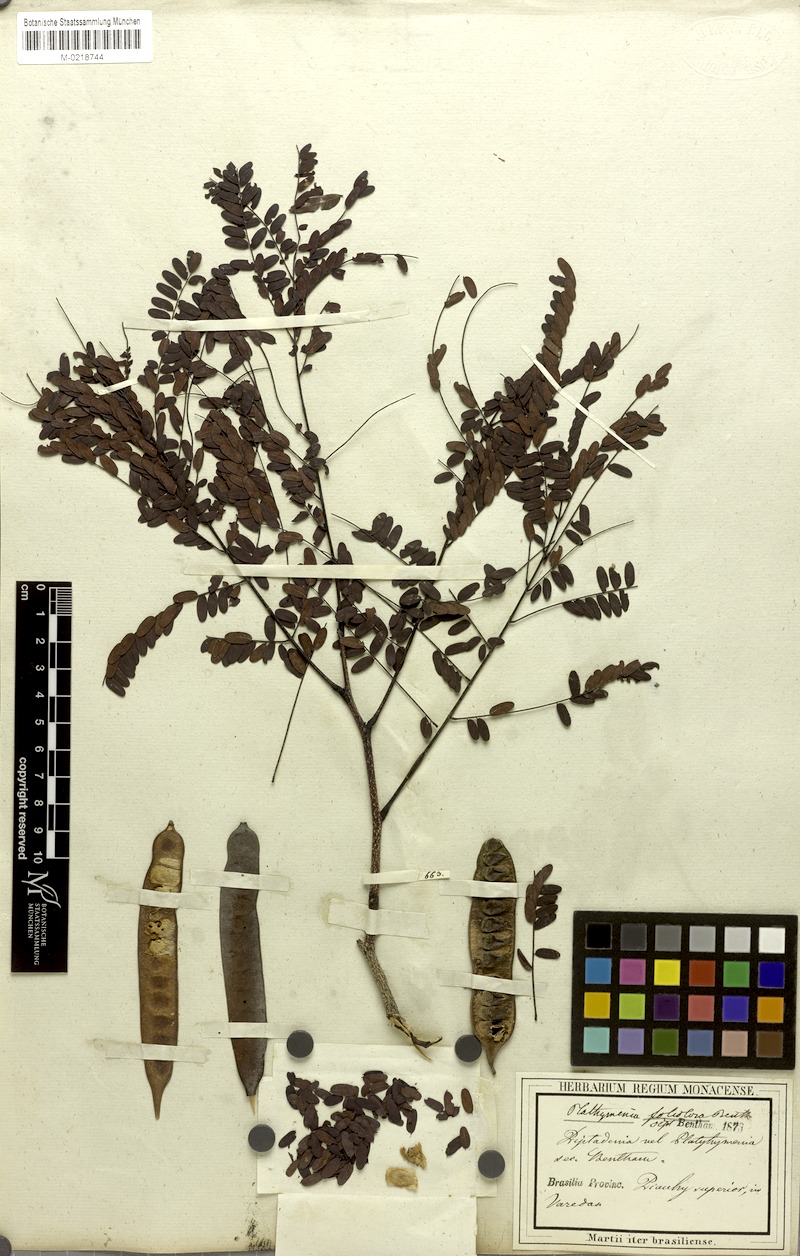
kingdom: Plantae
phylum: Tracheophyta
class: Magnoliopsida
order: Fabales
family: Fabaceae
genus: Plathymenia
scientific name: Plathymenia reticulata
